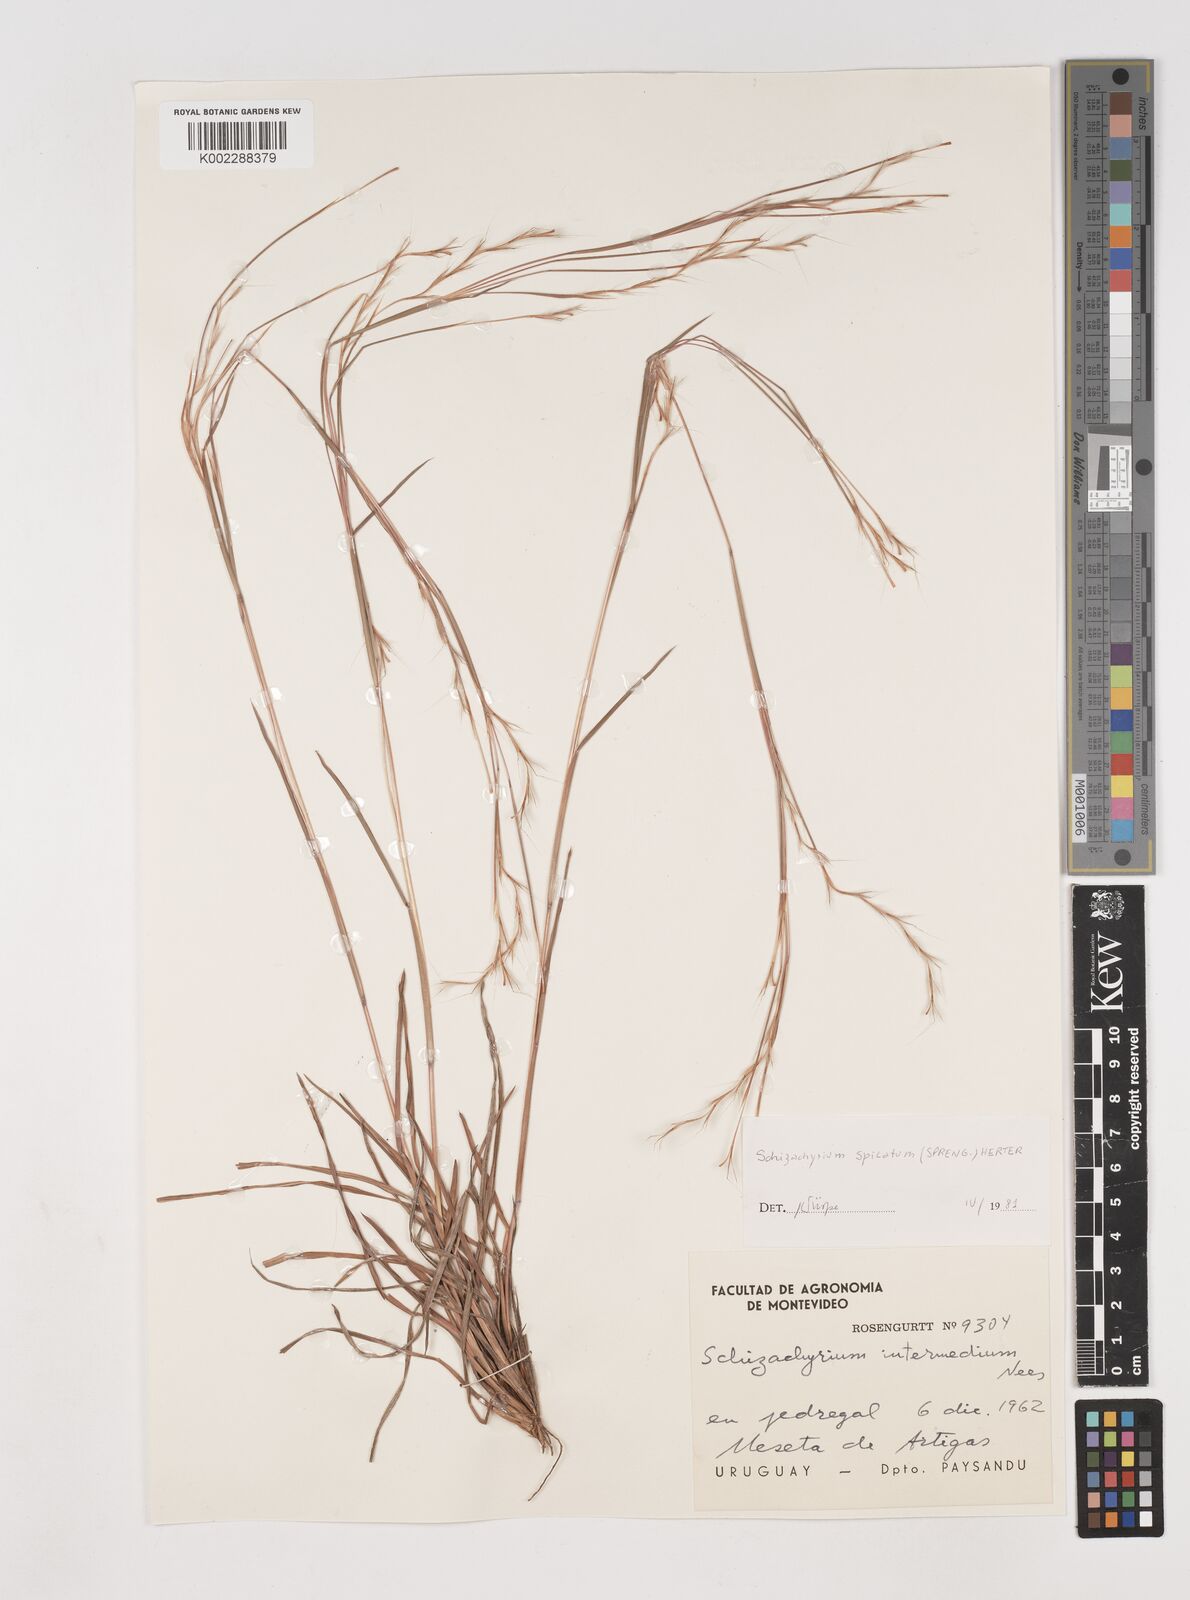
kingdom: Plantae
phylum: Tracheophyta
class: Liliopsida
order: Poales
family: Poaceae
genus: Schizachyrium
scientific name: Schizachyrium spicatum
